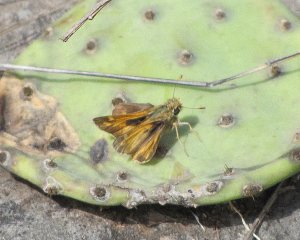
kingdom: Animalia
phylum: Arthropoda
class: Insecta
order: Lepidoptera
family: Hesperiidae
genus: Atalopedes
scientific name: Atalopedes campestris
